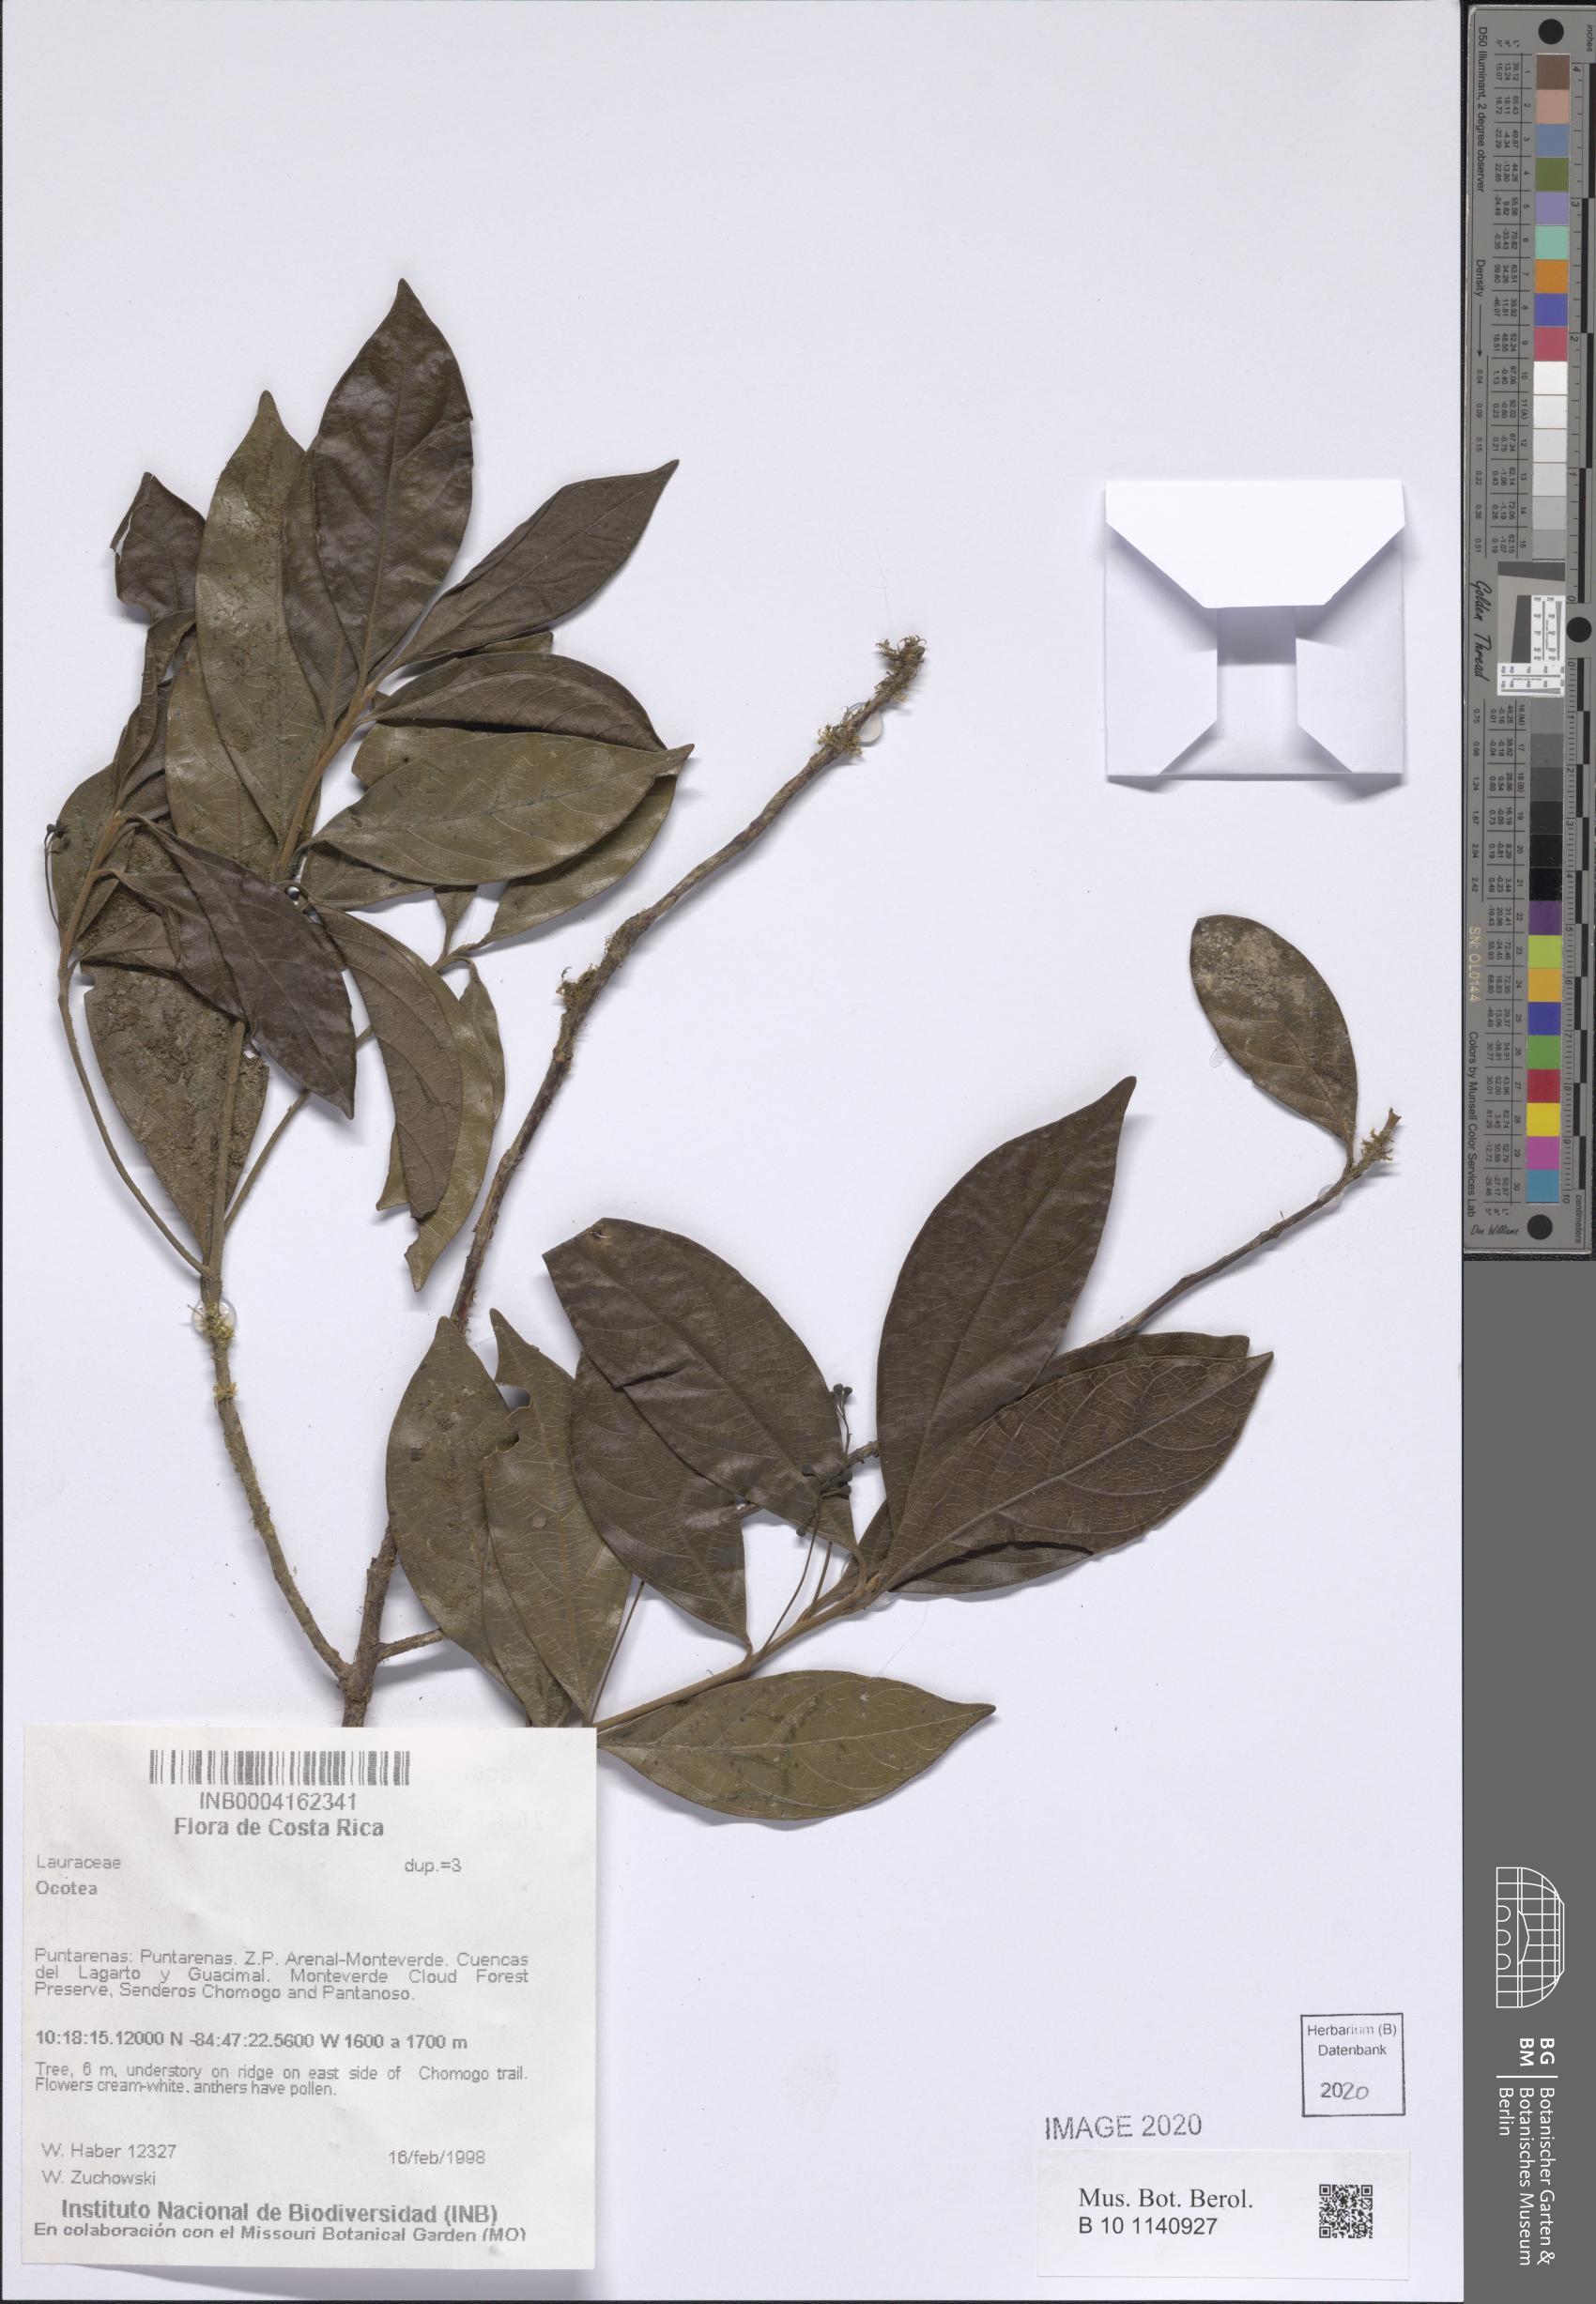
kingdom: Plantae
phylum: Tracheophyta
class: Magnoliopsida
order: Laurales
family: Lauraceae
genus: Ocotea
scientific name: Ocotea
